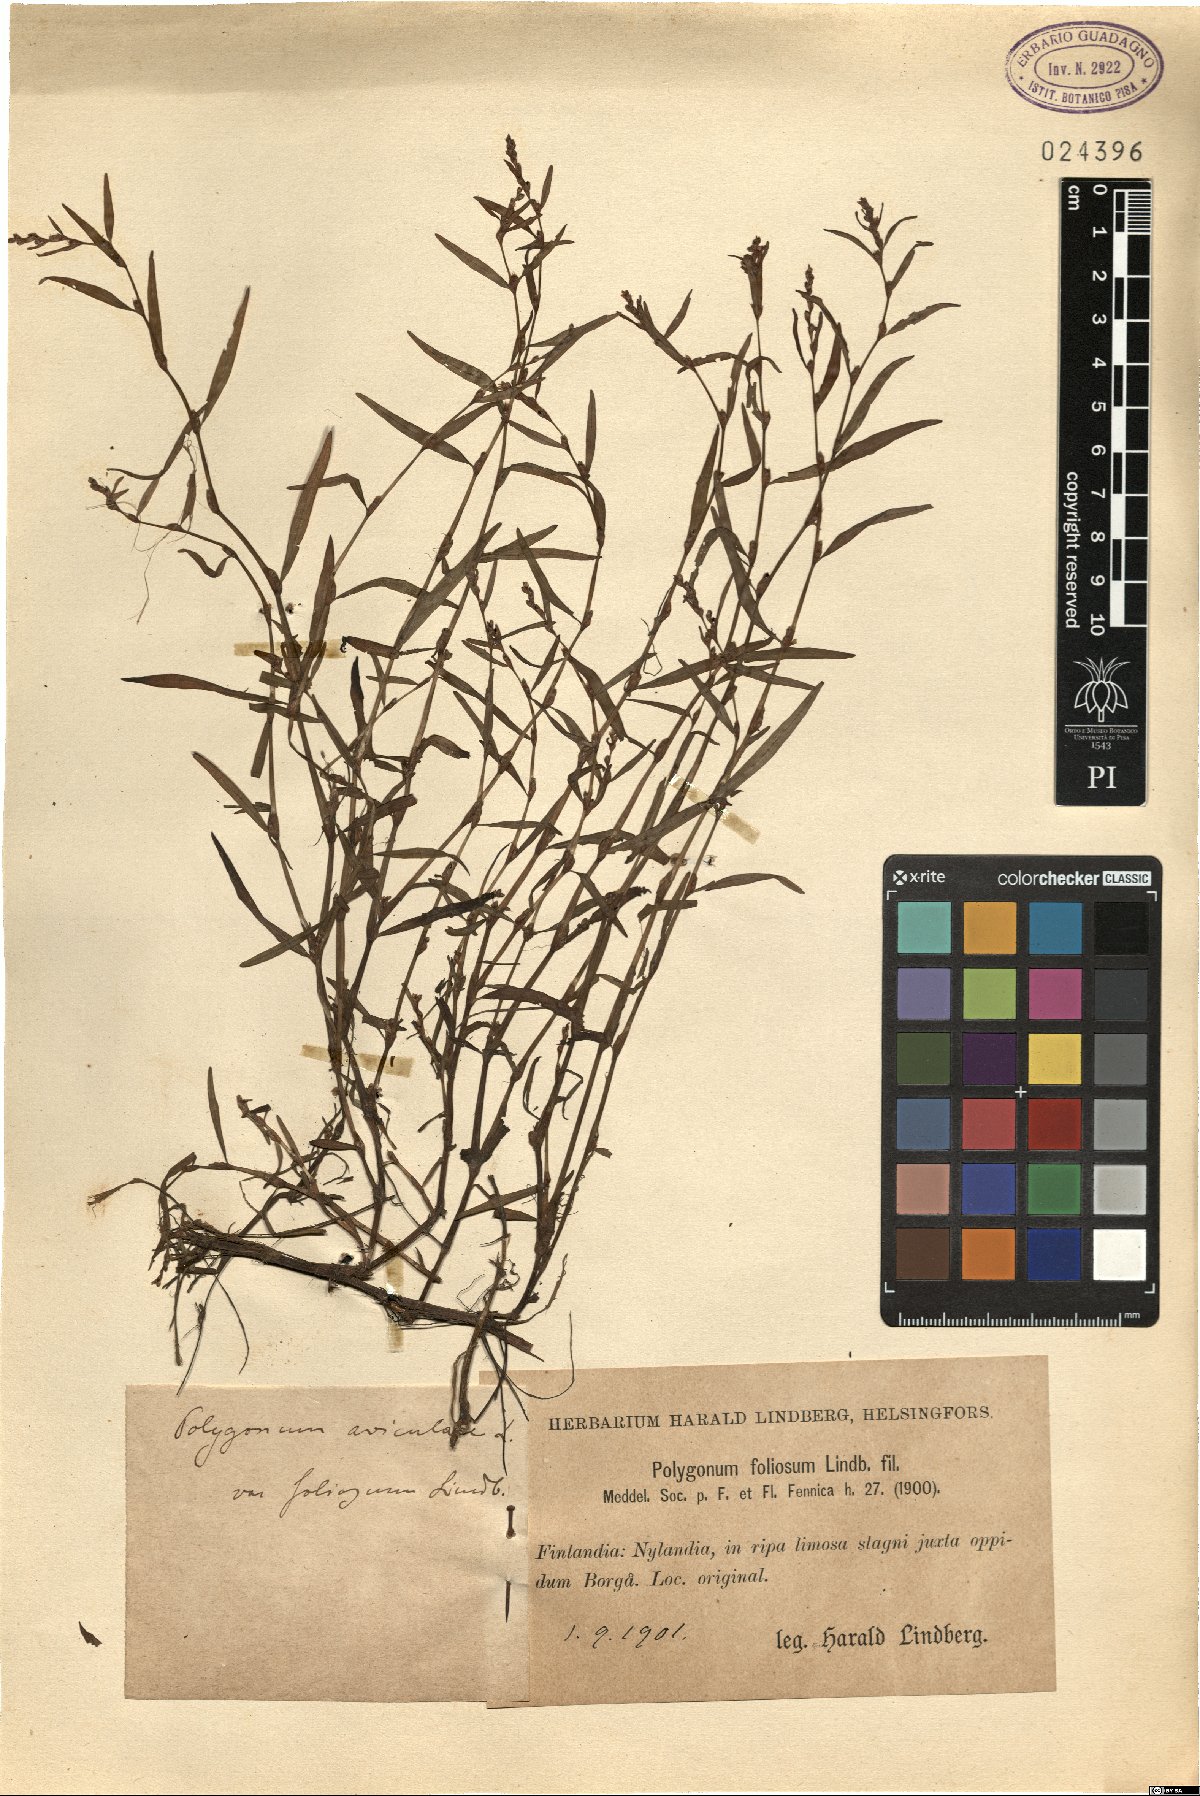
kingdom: Plantae
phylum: Tracheophyta
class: Magnoliopsida
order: Caryophyllales
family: Polygonaceae
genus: Persicaria
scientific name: Persicaria foliosa
